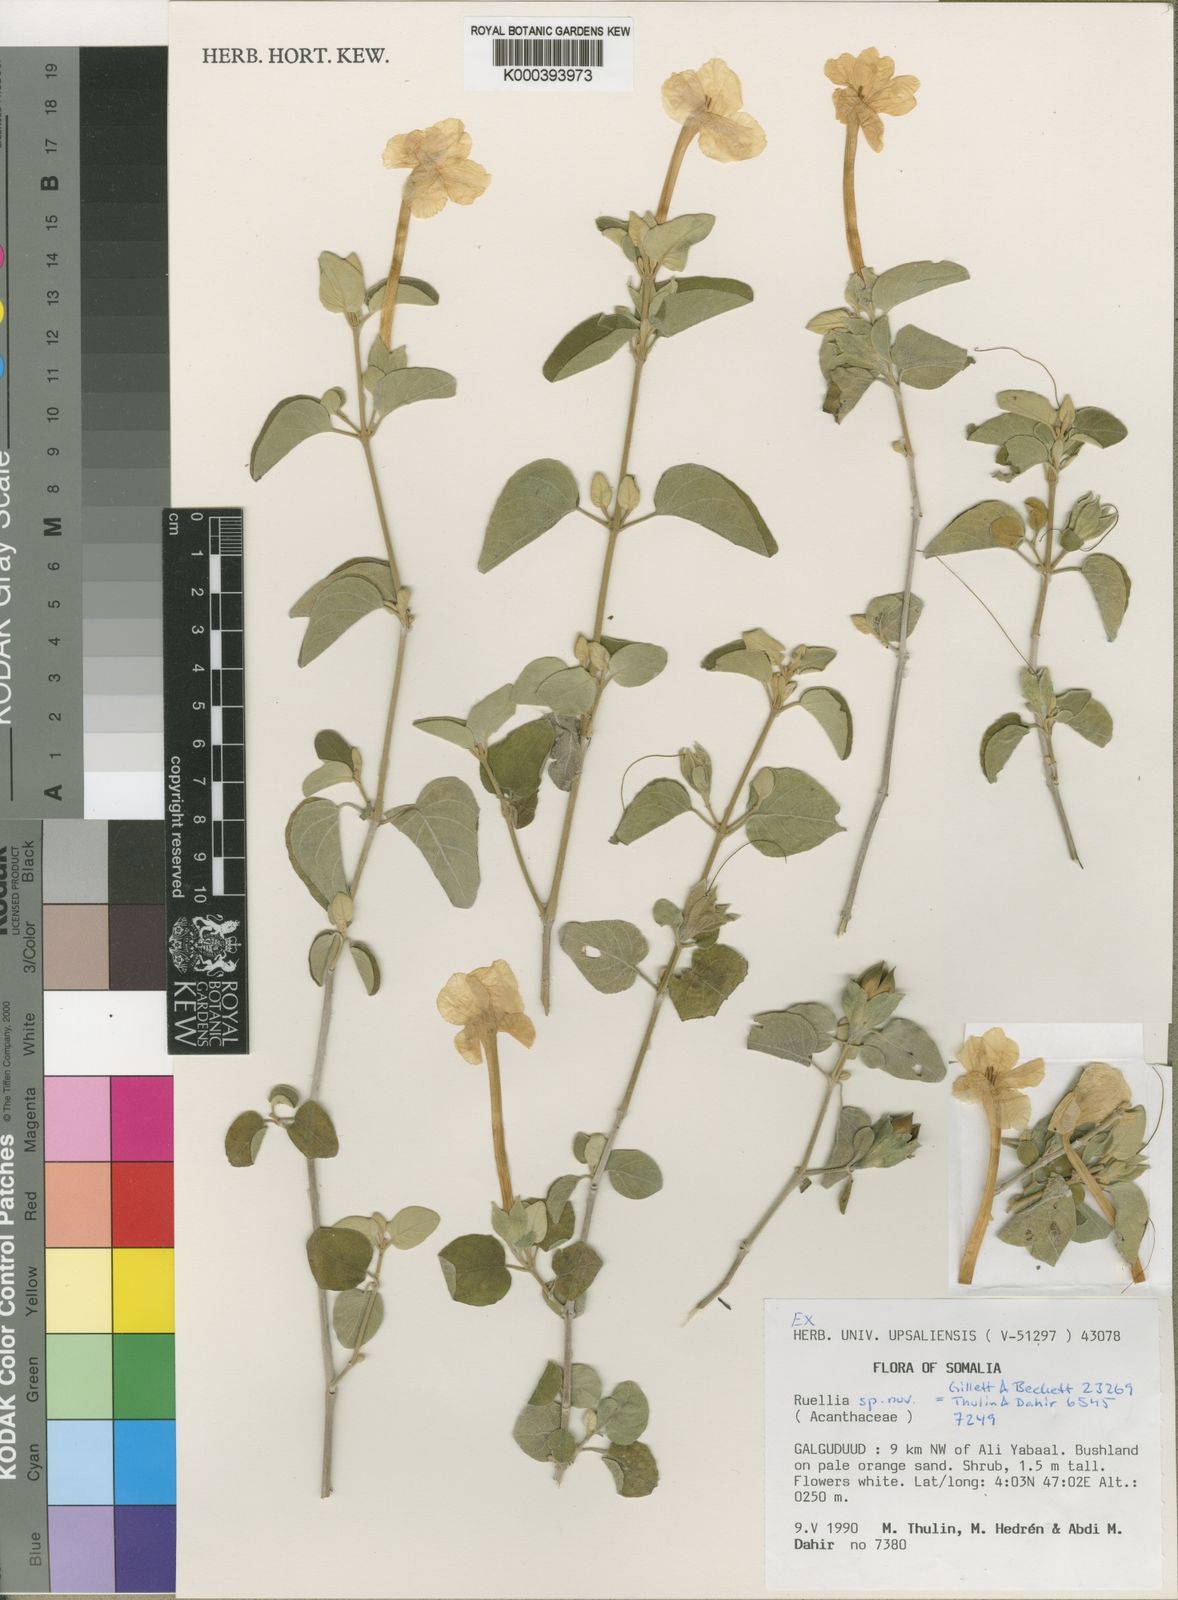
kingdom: Plantae
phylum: Tracheophyta
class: Magnoliopsida
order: Lamiales
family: Acanthaceae
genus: Ruellia
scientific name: Ruellia
